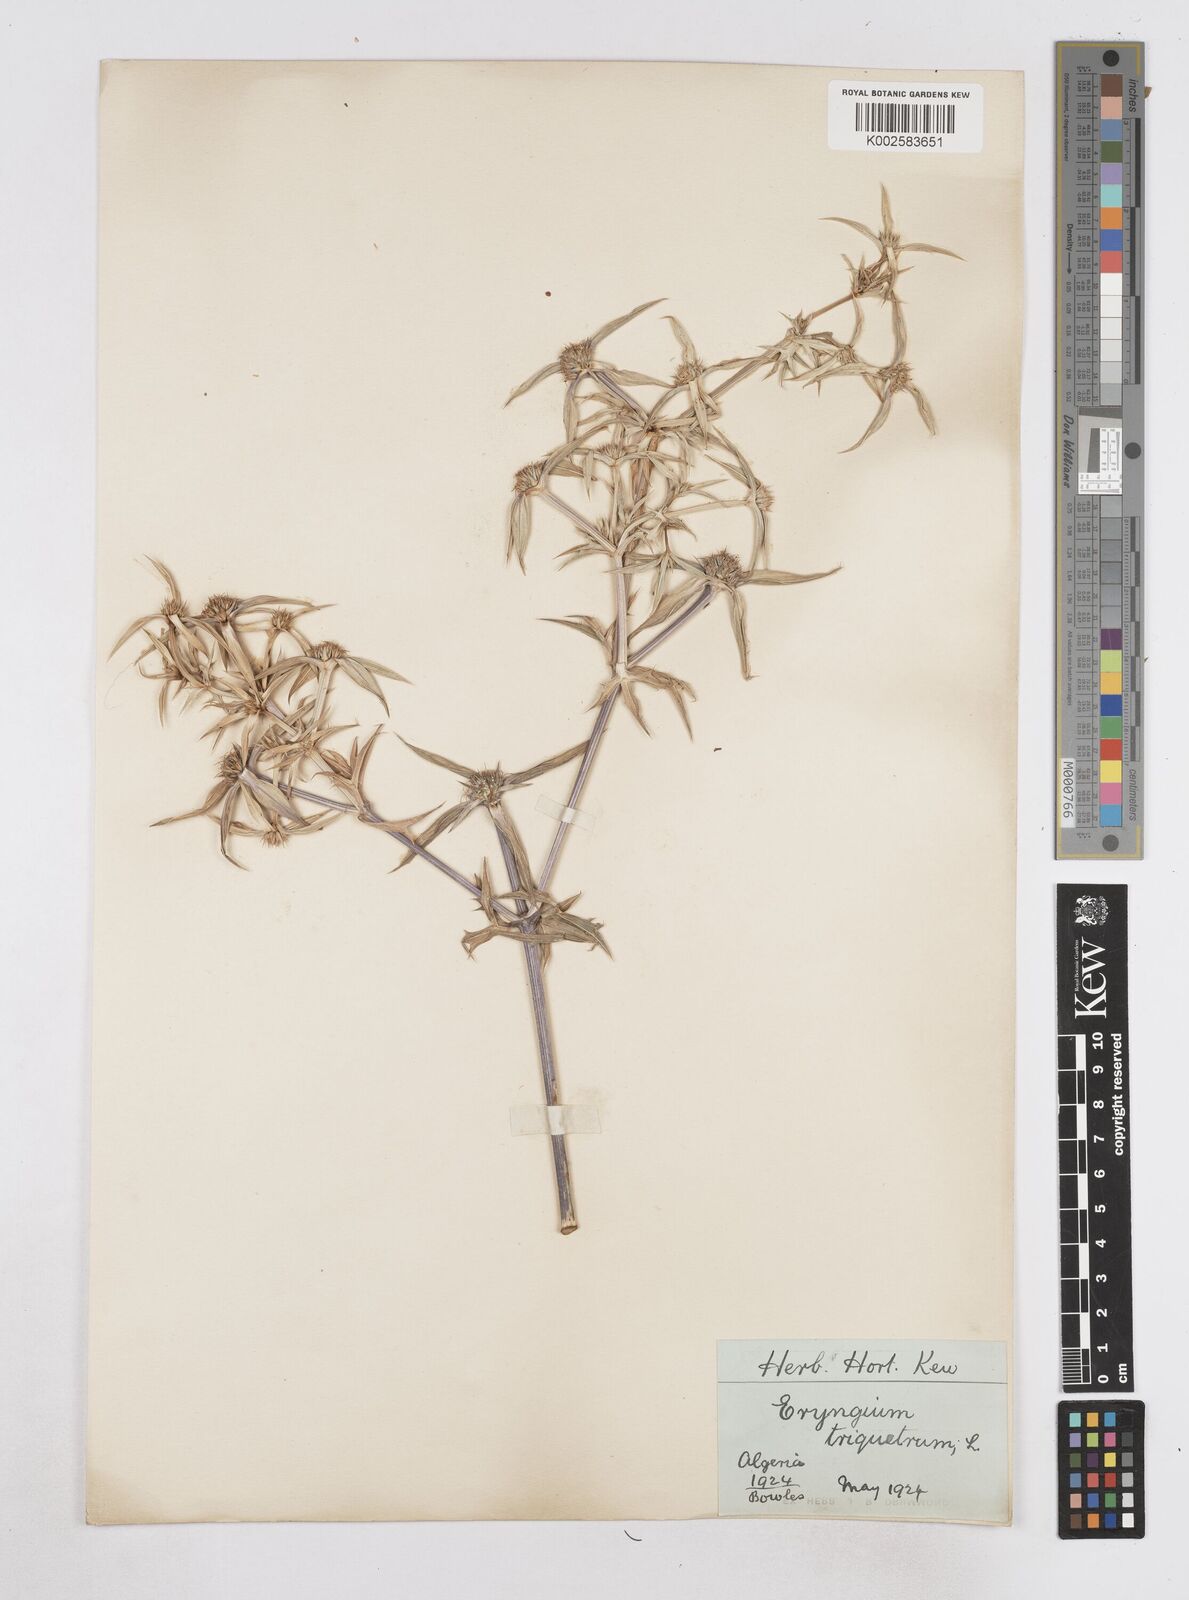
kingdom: Plantae
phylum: Tracheophyta
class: Magnoliopsida
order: Apiales
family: Apiaceae
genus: Eryngium
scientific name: Eryngium triquetrum
